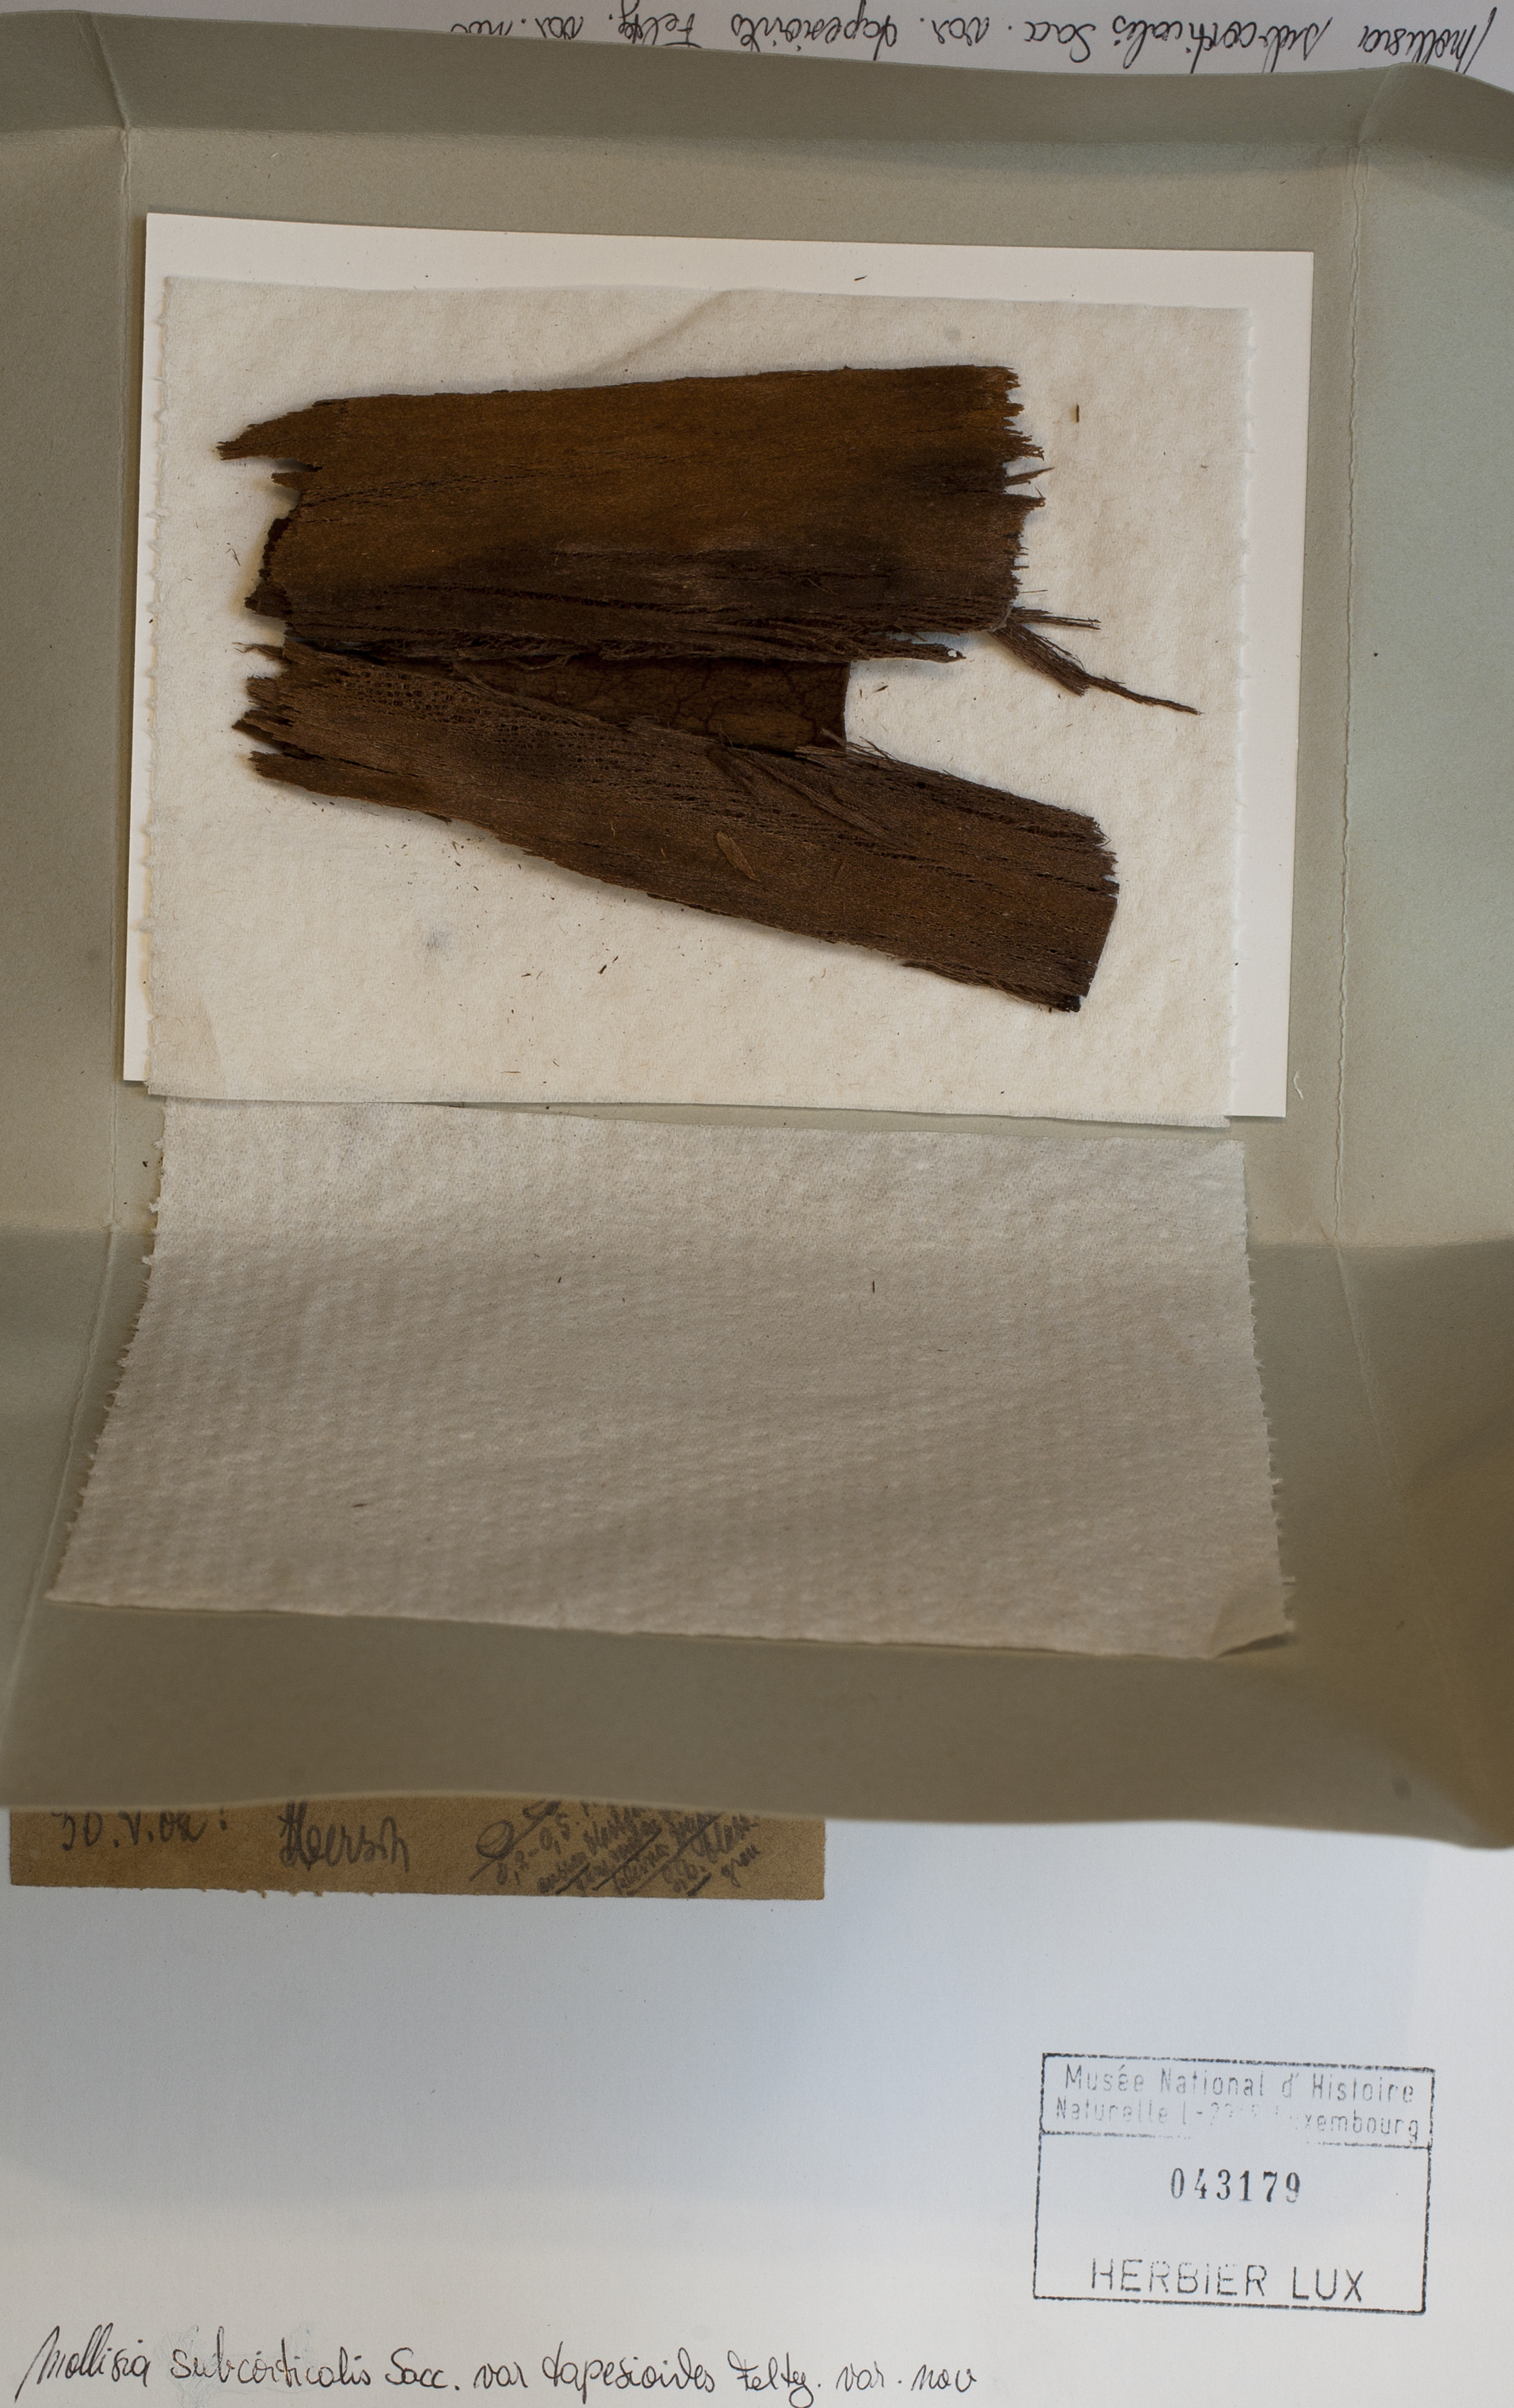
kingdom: Fungi
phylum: Ascomycota
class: Leotiomycetes
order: Helotiales
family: Mollisiaceae
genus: Mollisia
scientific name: Mollisia subcorticalis
